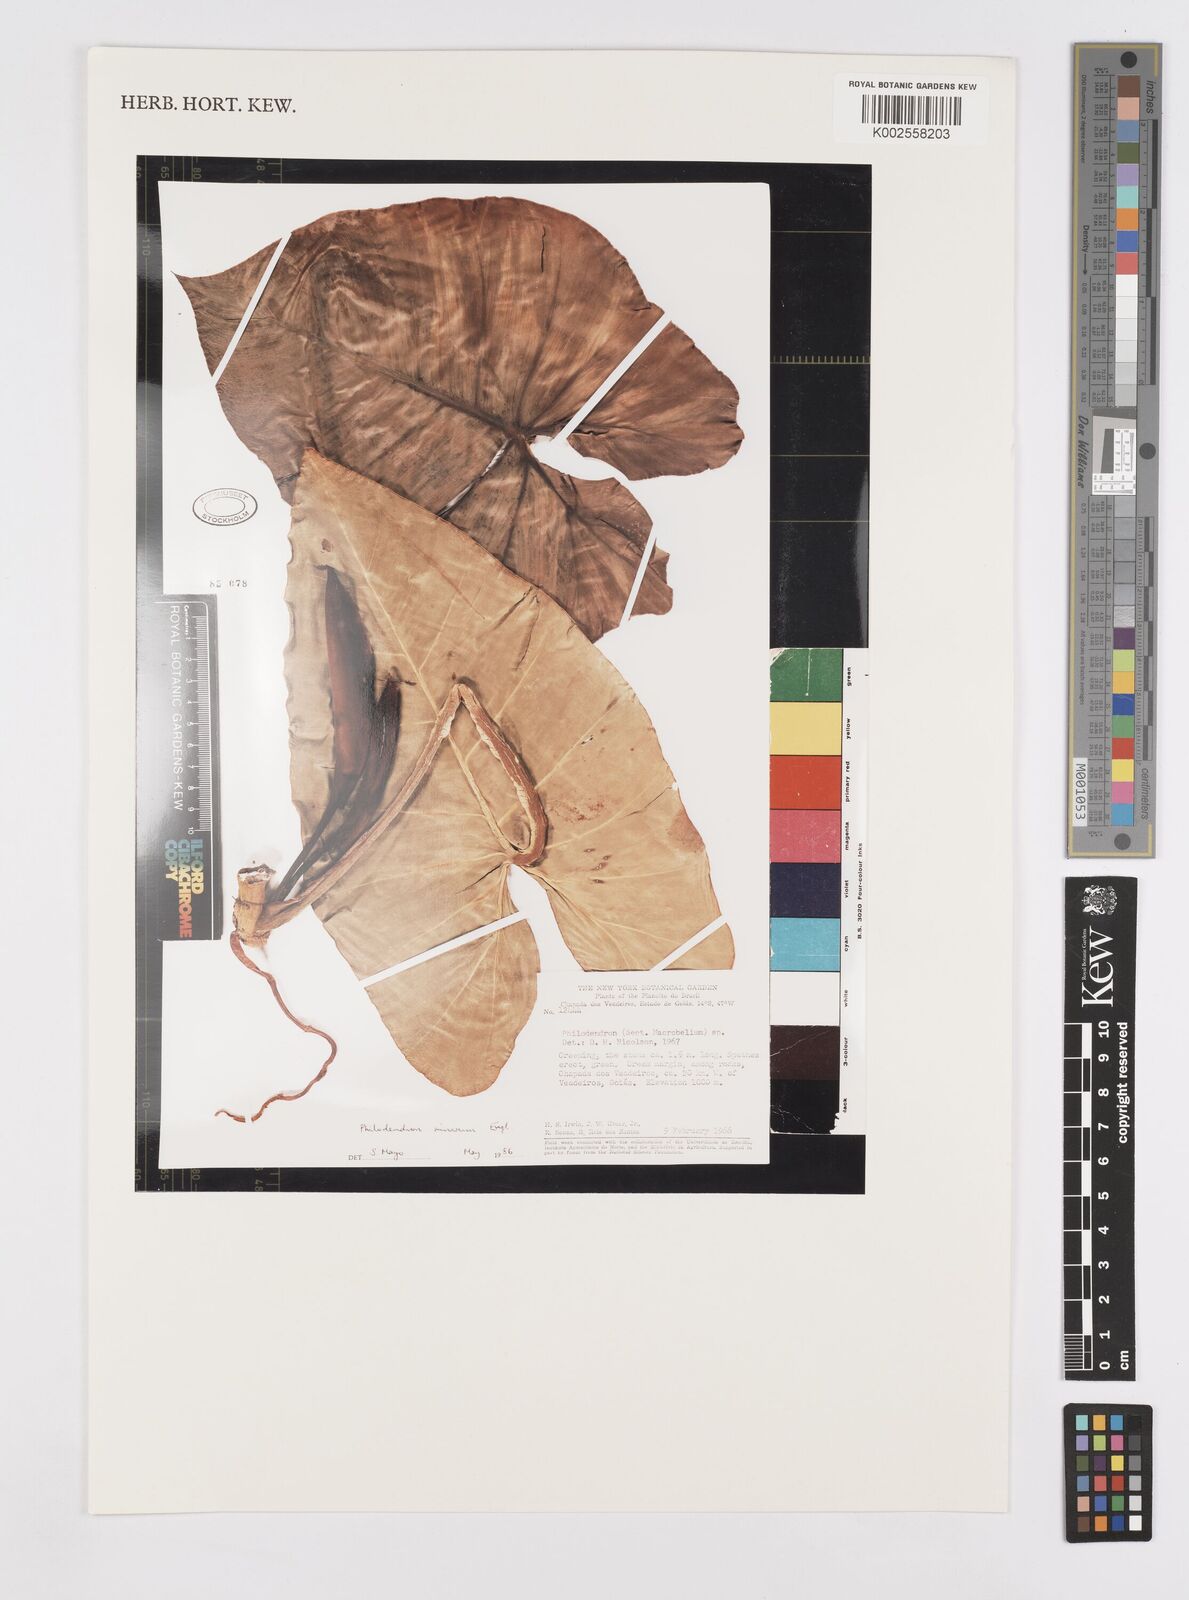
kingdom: Plantae
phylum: Tracheophyta
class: Liliopsida
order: Alismatales
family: Araceae
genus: Philodendron
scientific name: Philodendron minarum
